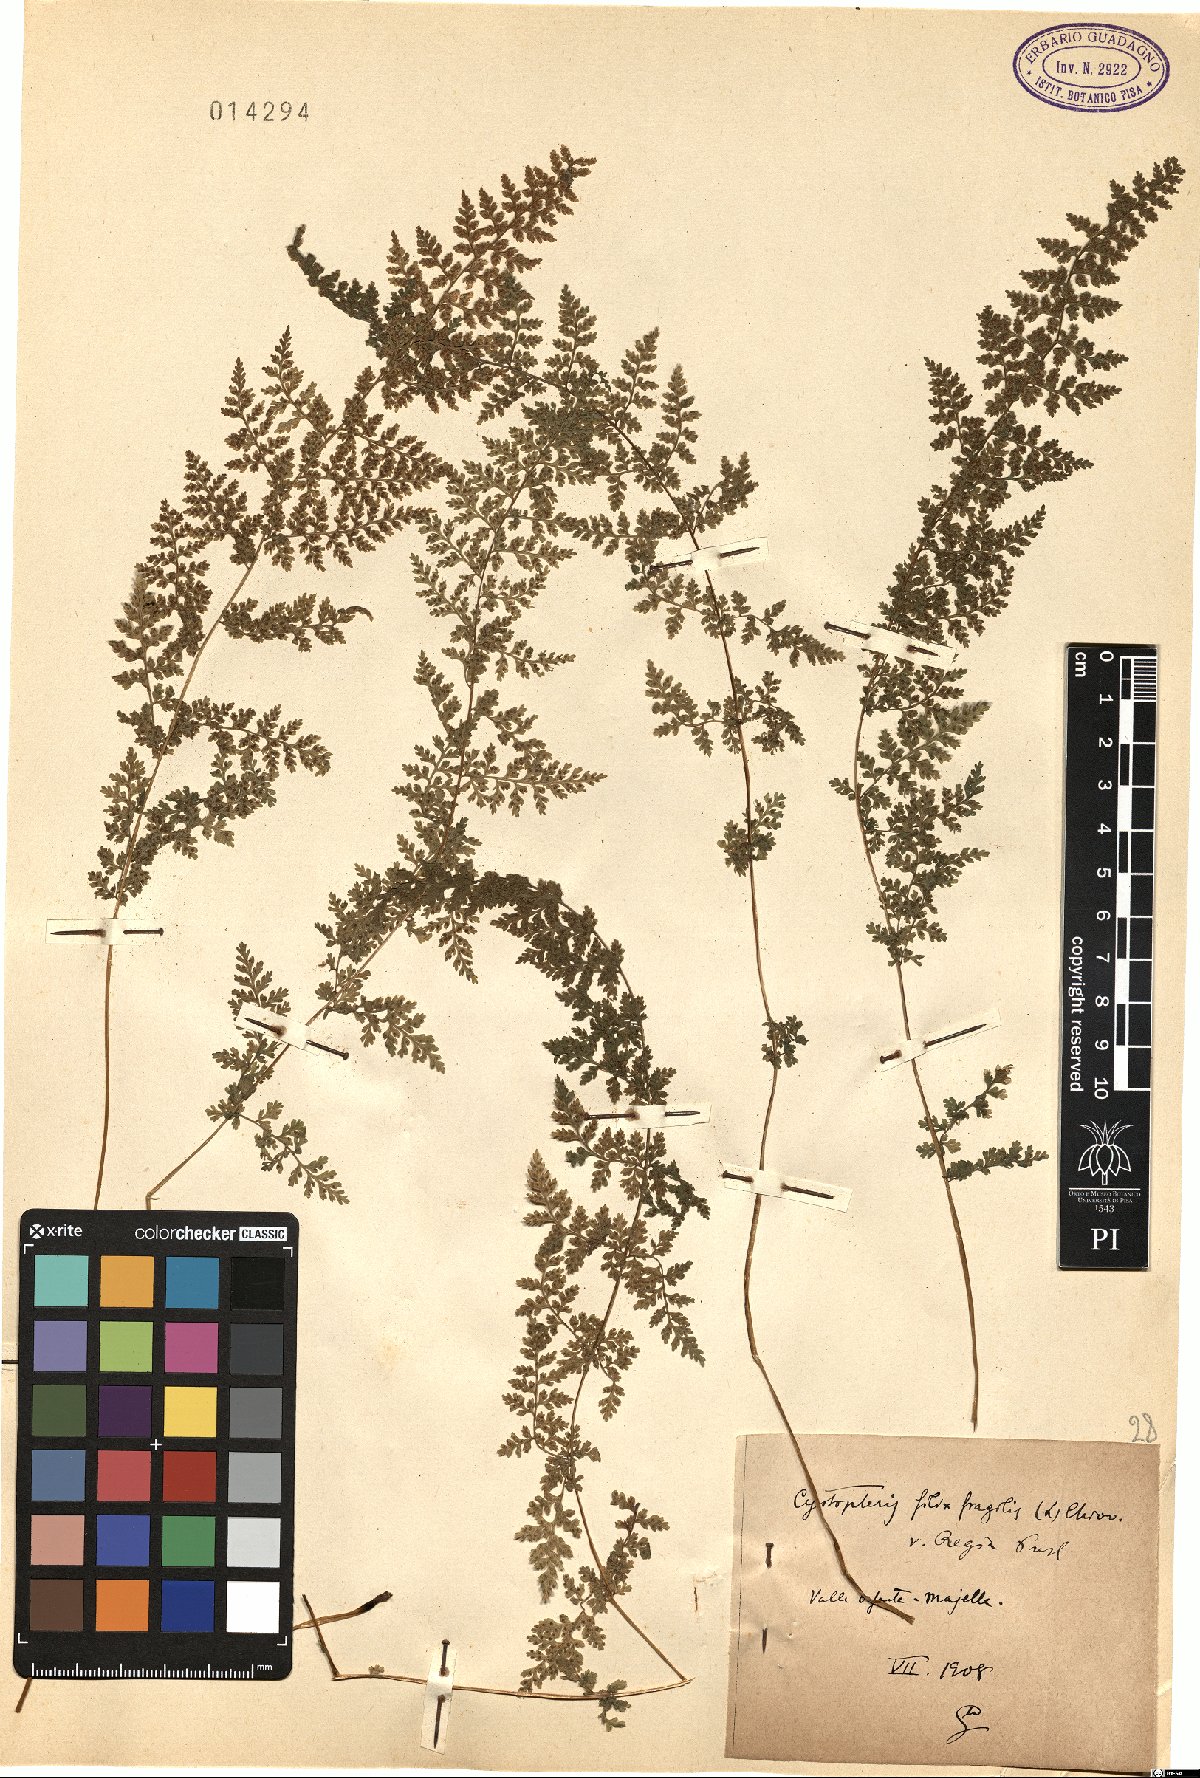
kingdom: Plantae
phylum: Tracheophyta
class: Polypodiopsida
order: Polypodiales
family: Cystopteridaceae
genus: Cystopteris
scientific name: Cystopteris alpina
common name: Alpine bladder-fern
